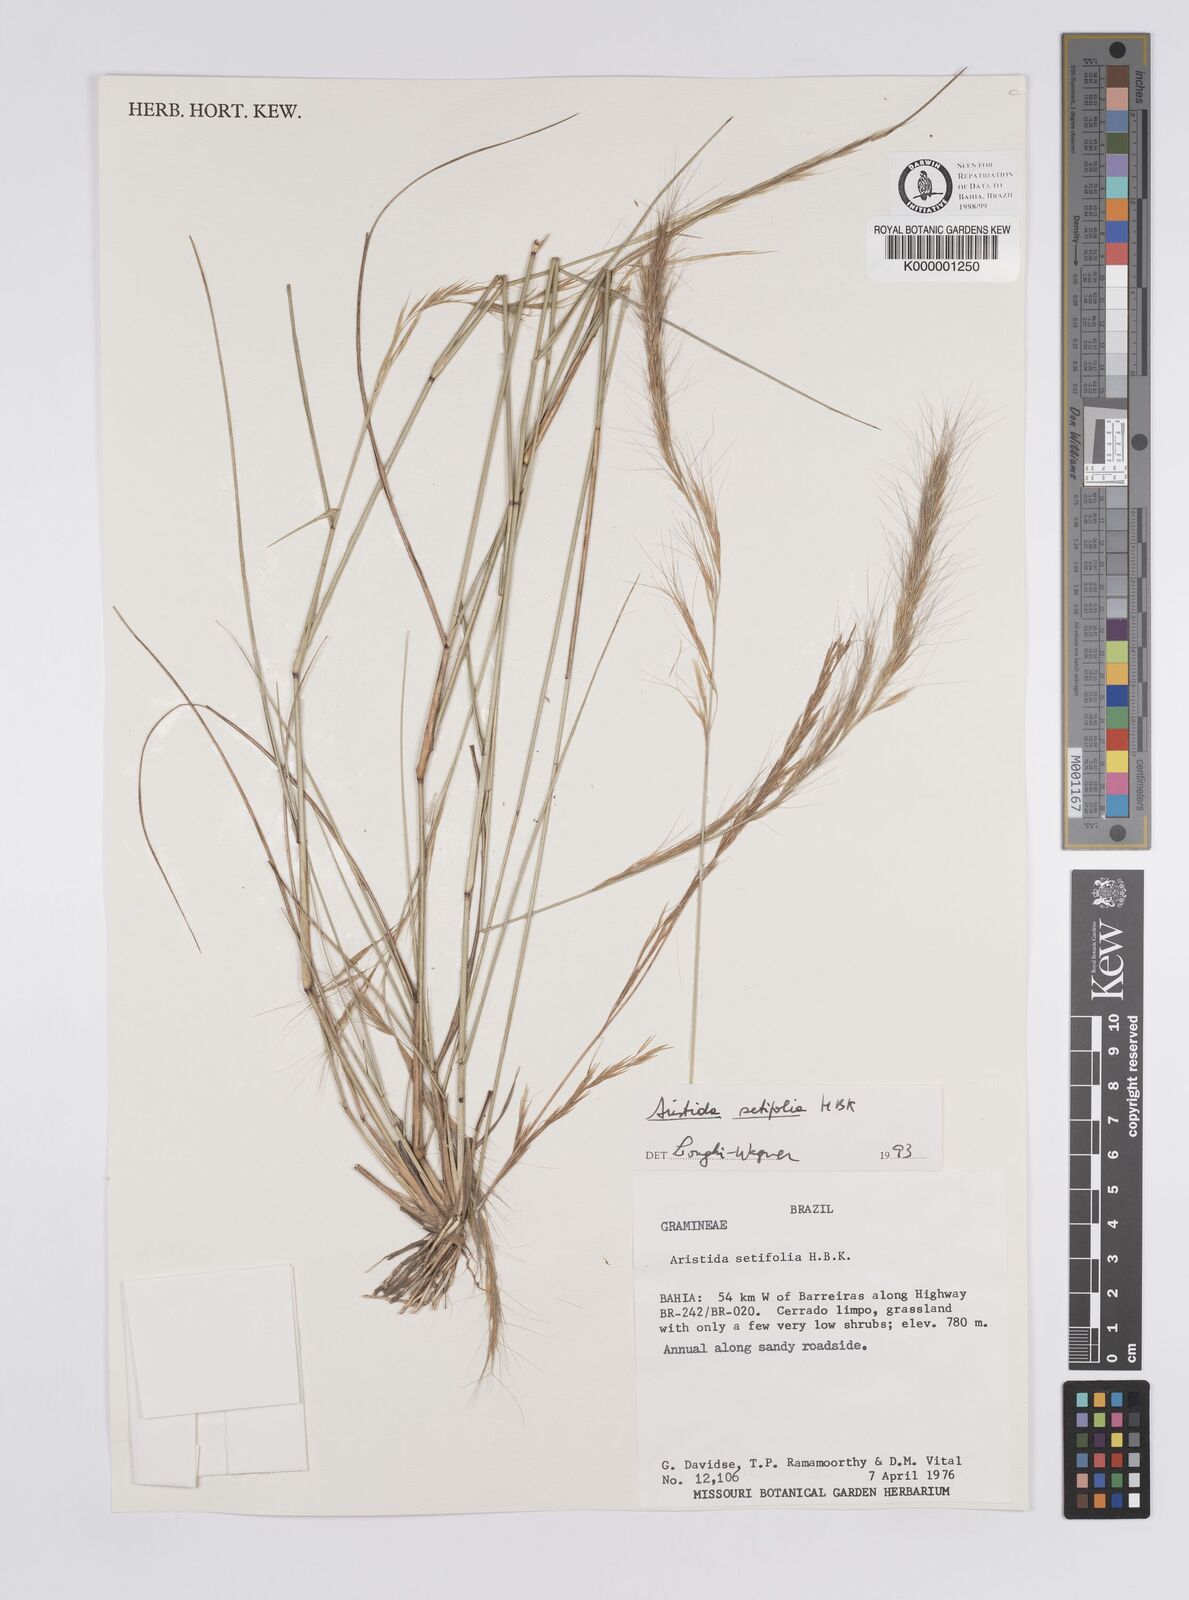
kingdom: Plantae
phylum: Tracheophyta
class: Liliopsida
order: Poales
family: Poaceae
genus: Aristida
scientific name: Aristida setifolia
